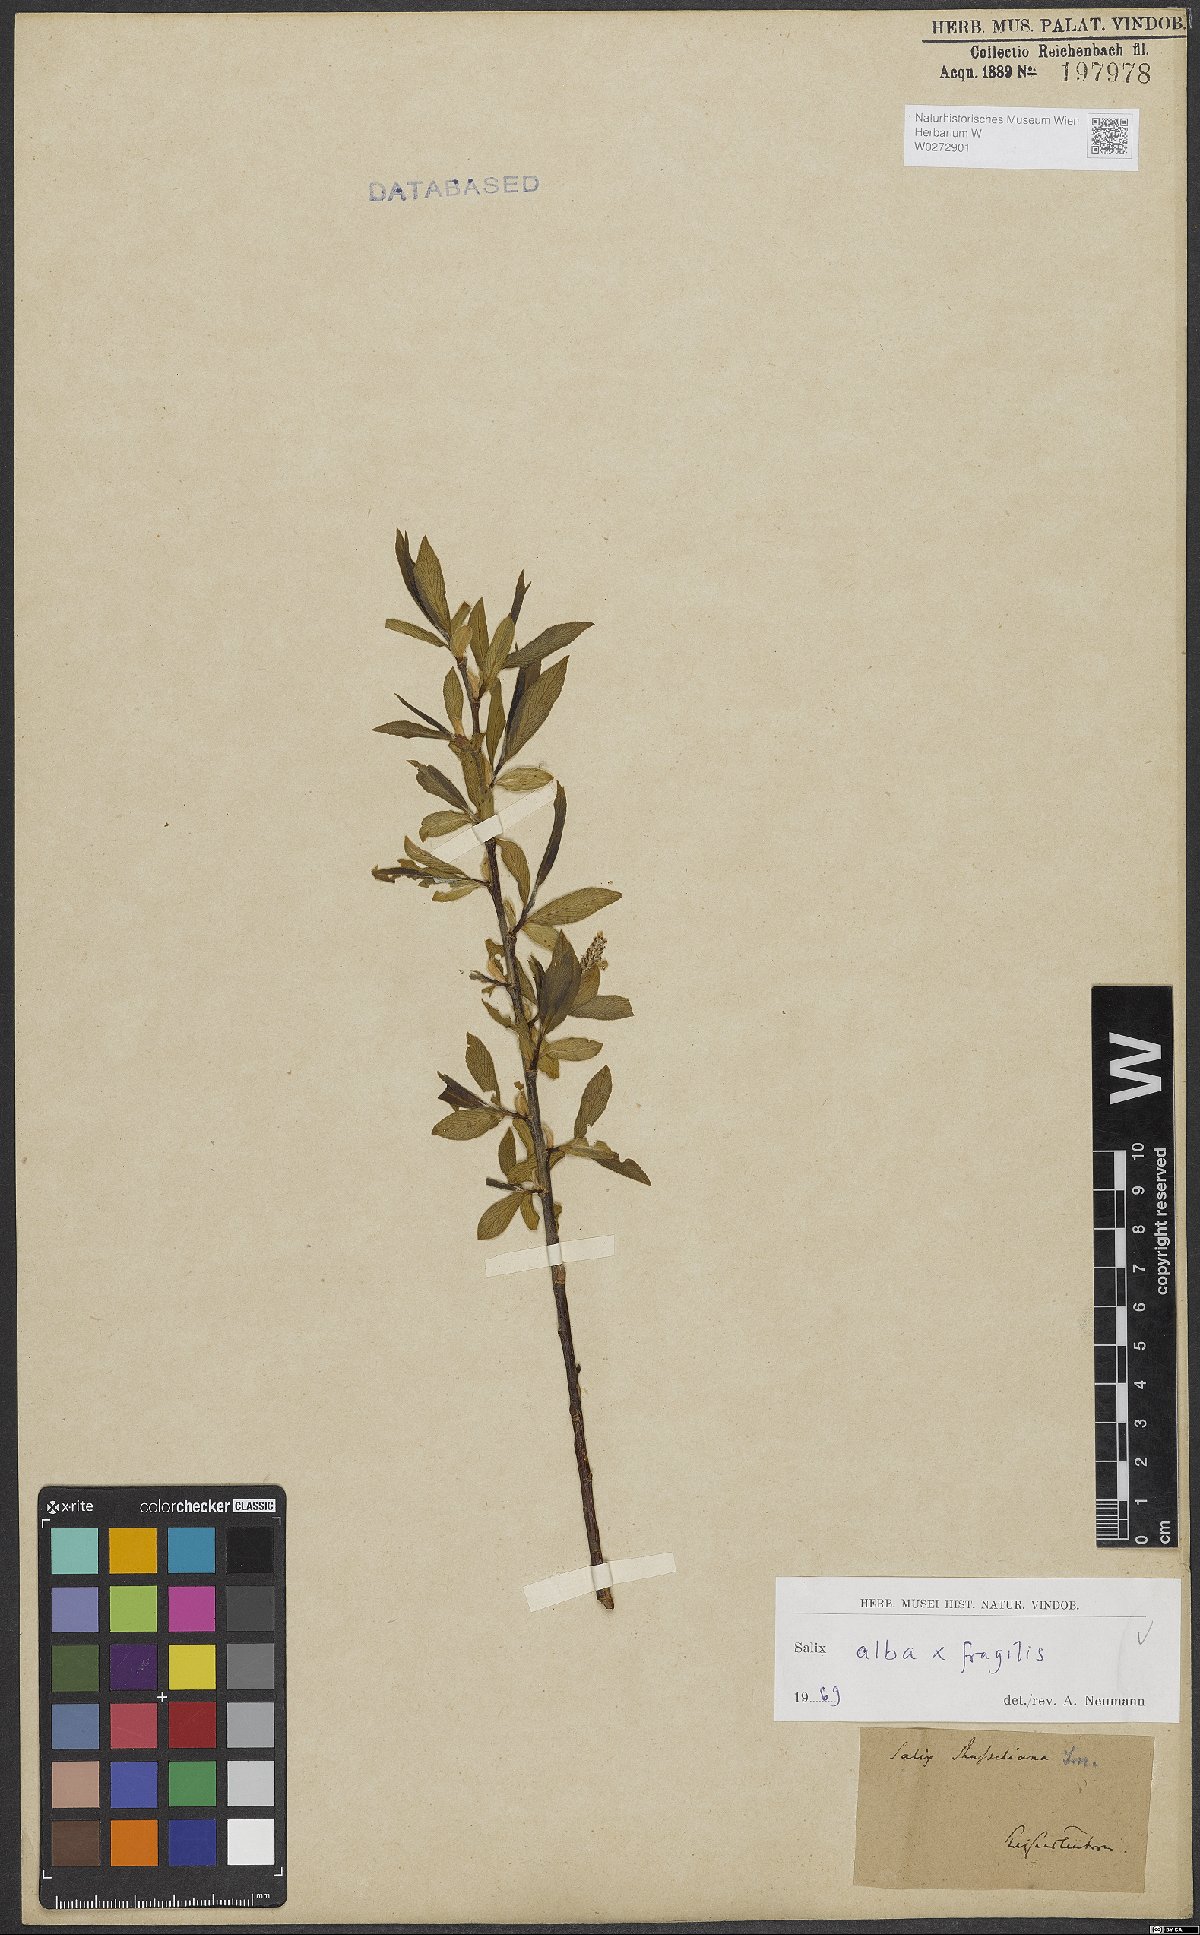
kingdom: Plantae
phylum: Tracheophyta
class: Magnoliopsida
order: Malpighiales
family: Salicaceae
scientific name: Salicaceae
